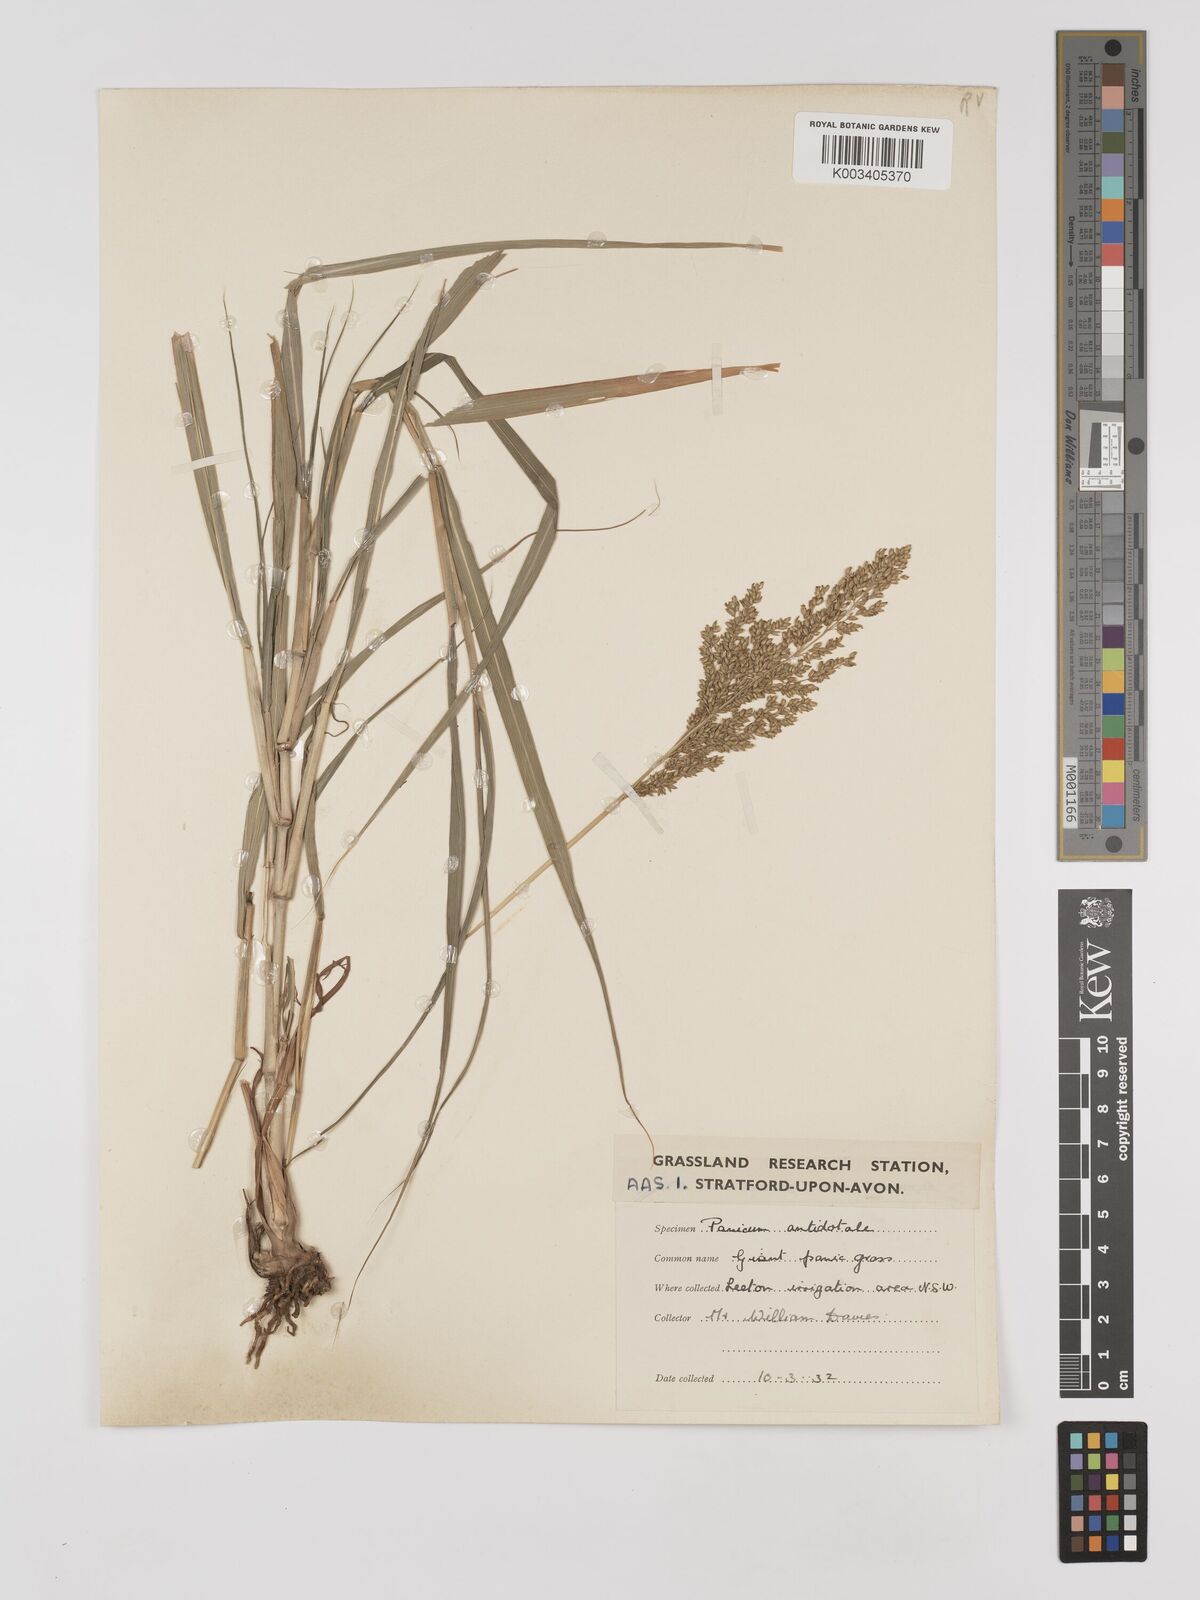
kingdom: Plantae
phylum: Tracheophyta
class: Liliopsida
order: Poales
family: Poaceae
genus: Panicum
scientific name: Panicum antidotale
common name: Blue panicum
